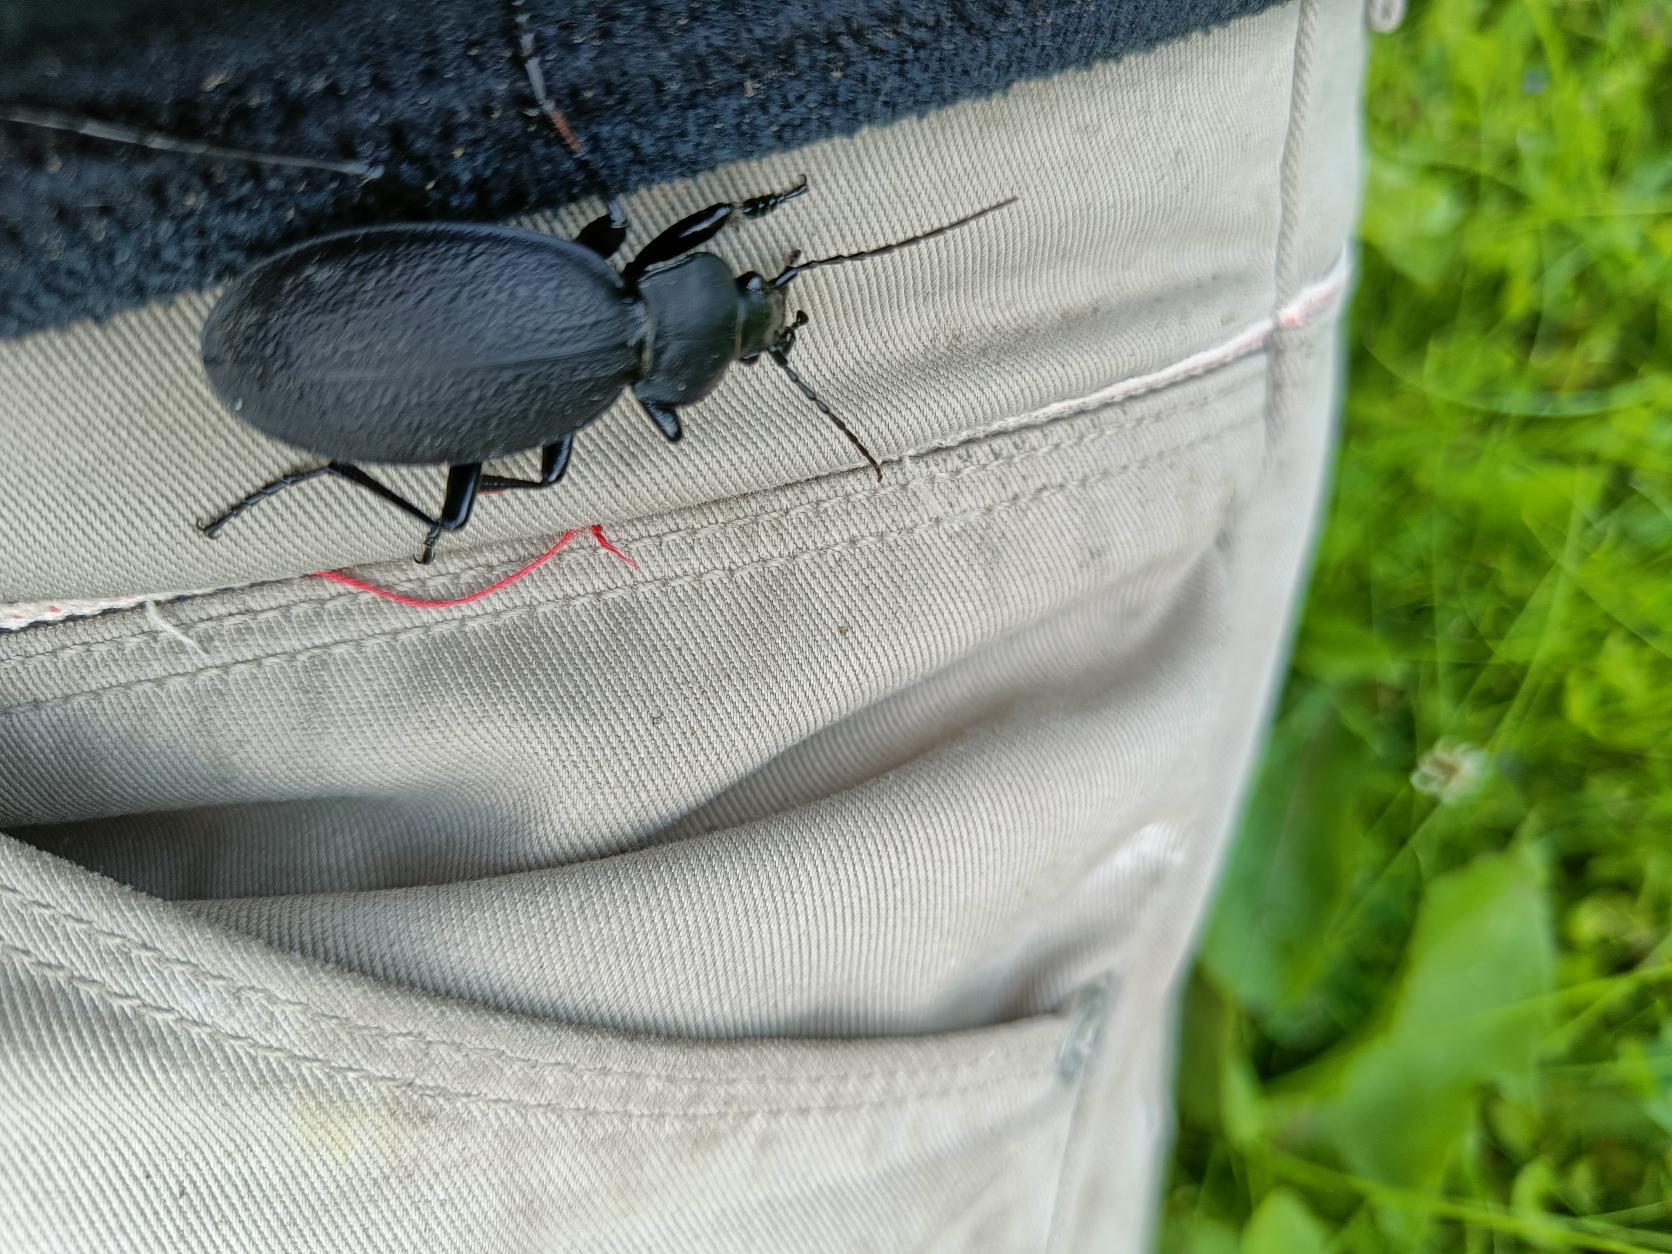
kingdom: Animalia
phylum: Arthropoda
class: Insecta
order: Coleoptera
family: Carabidae
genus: Carabus
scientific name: Carabus coriaceus
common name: Læderløber
